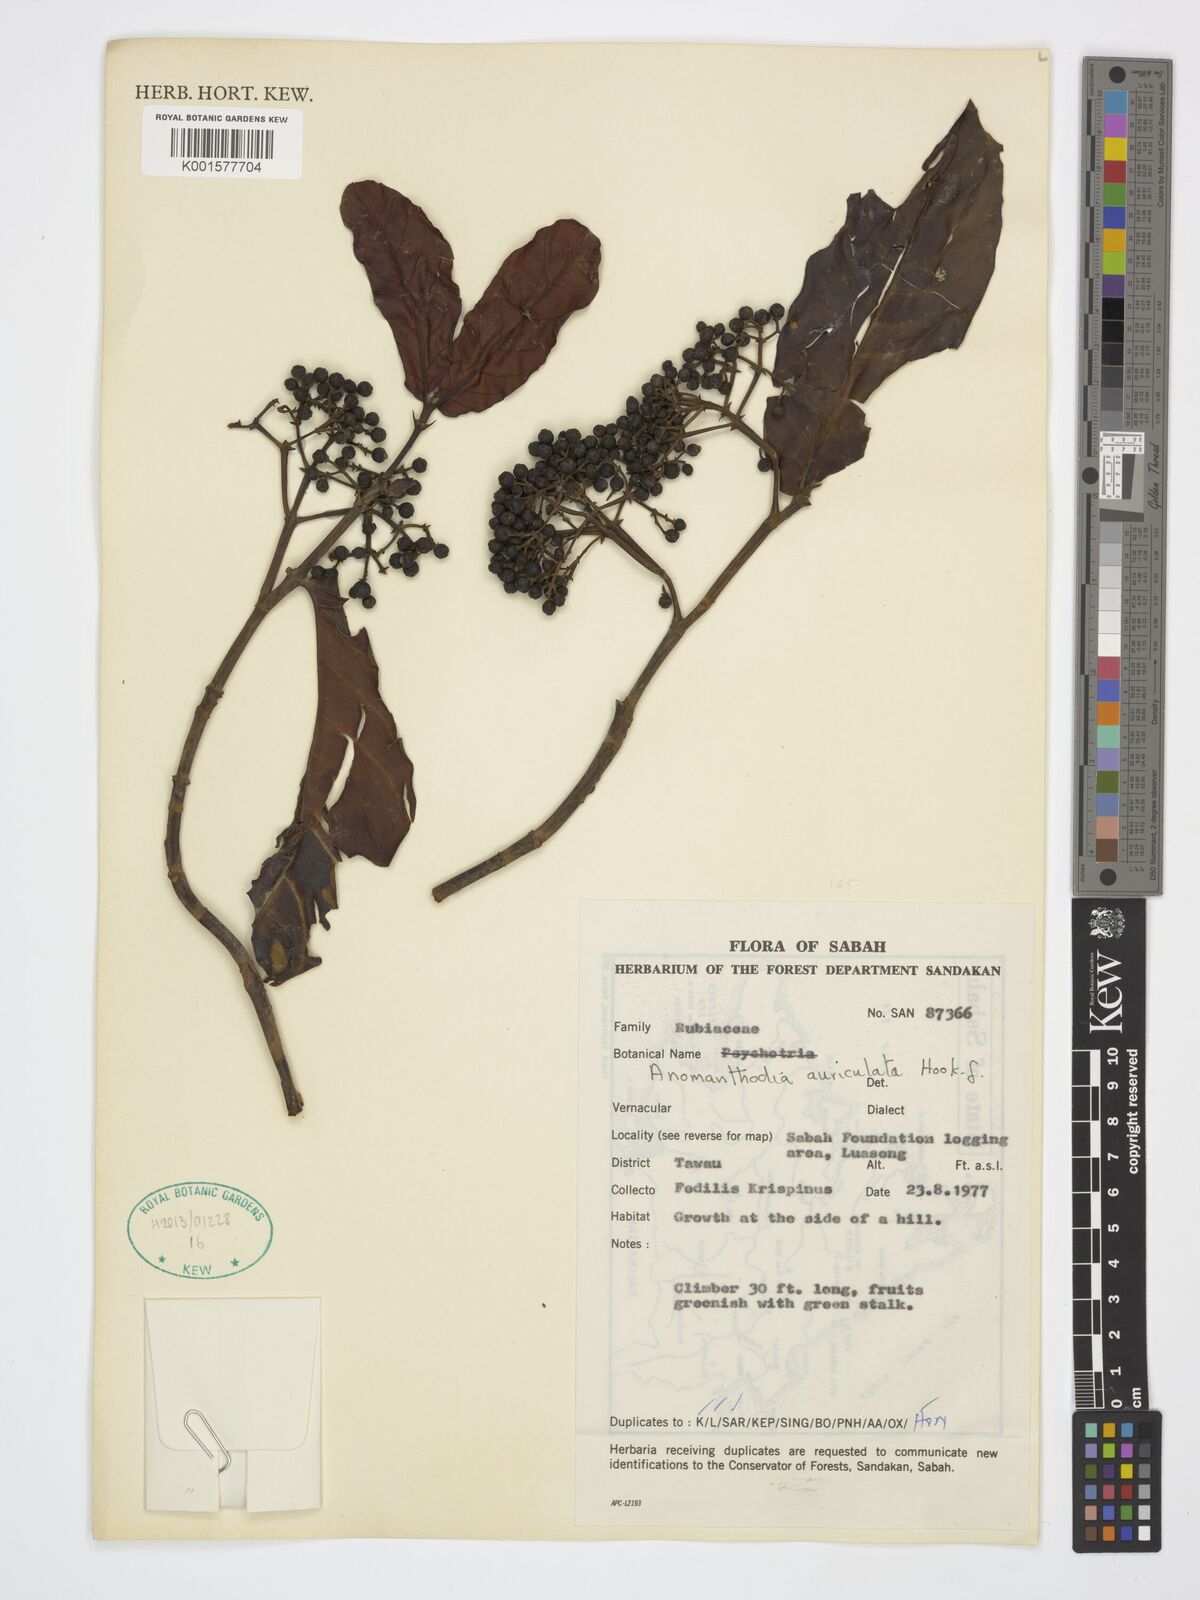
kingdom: Plantae
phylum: Tracheophyta
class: Magnoliopsida
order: Gentianales
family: Rubiaceae
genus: Aidia
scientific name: Aidia auriculata
